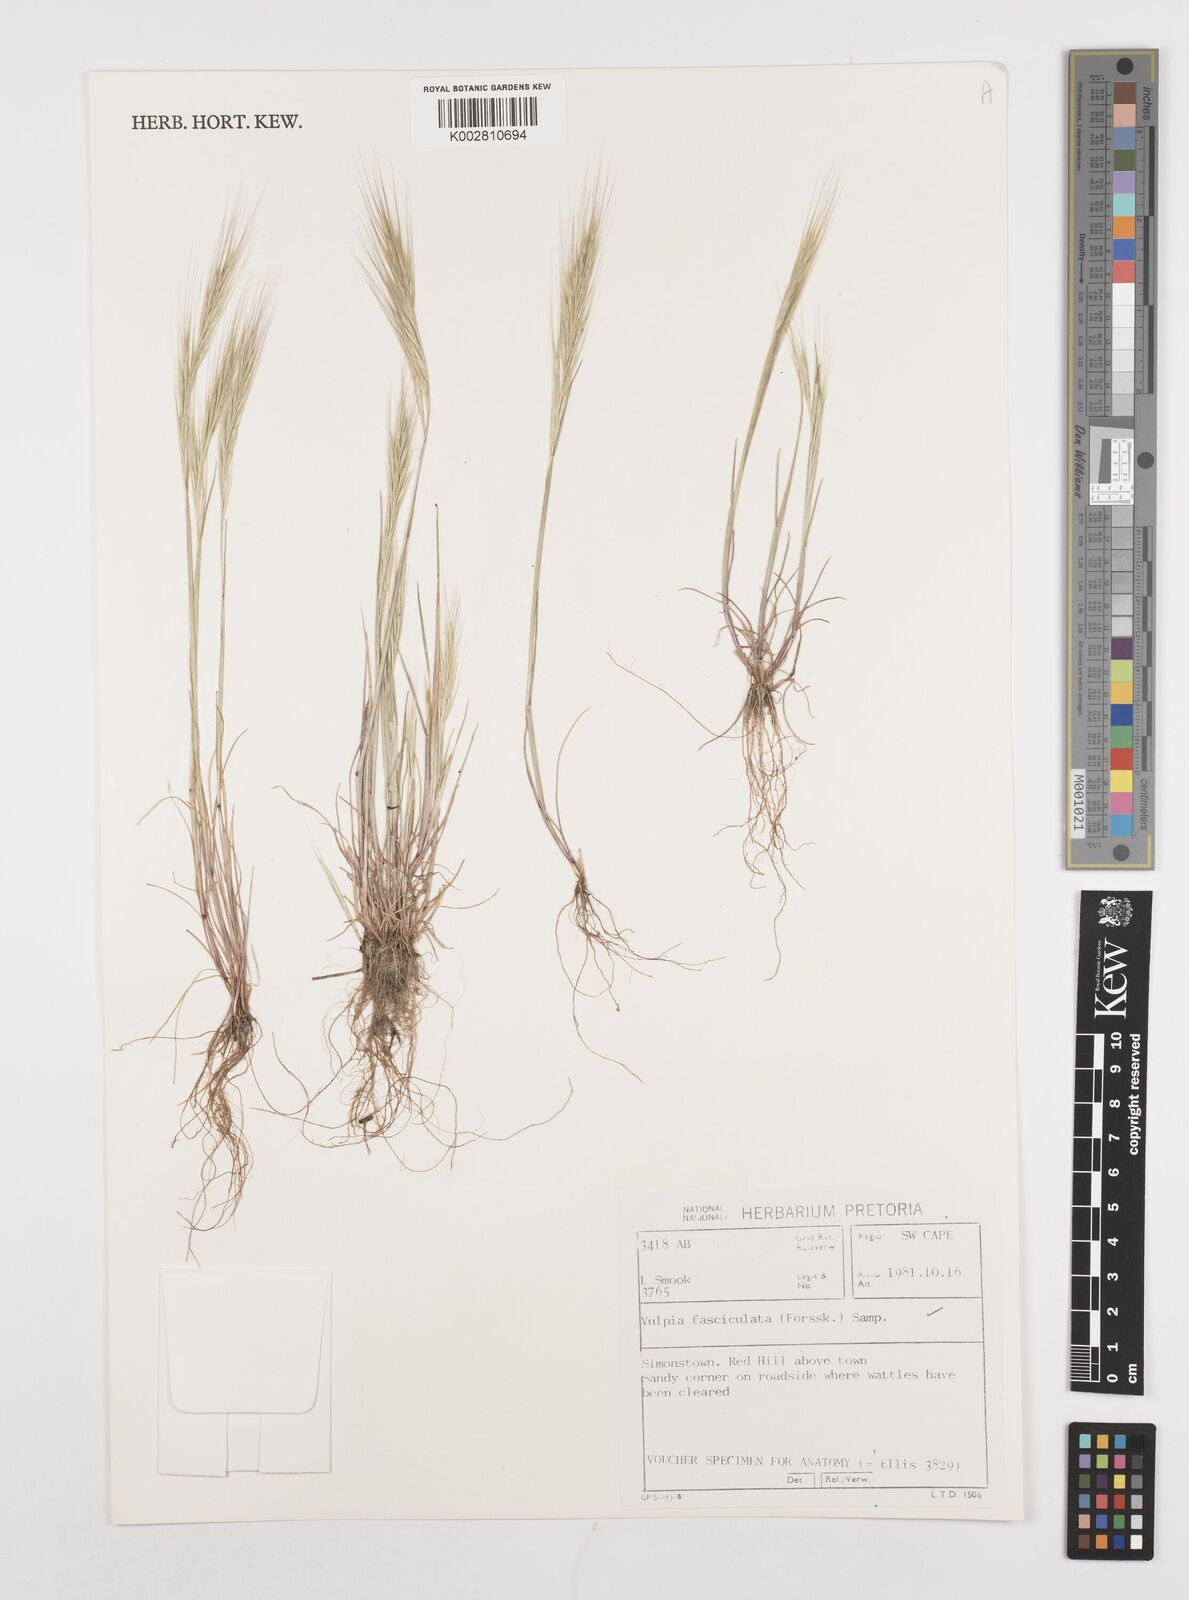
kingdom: Plantae
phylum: Tracheophyta
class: Liliopsida
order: Poales
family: Poaceae
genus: Festuca
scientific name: Festuca fasciculata
